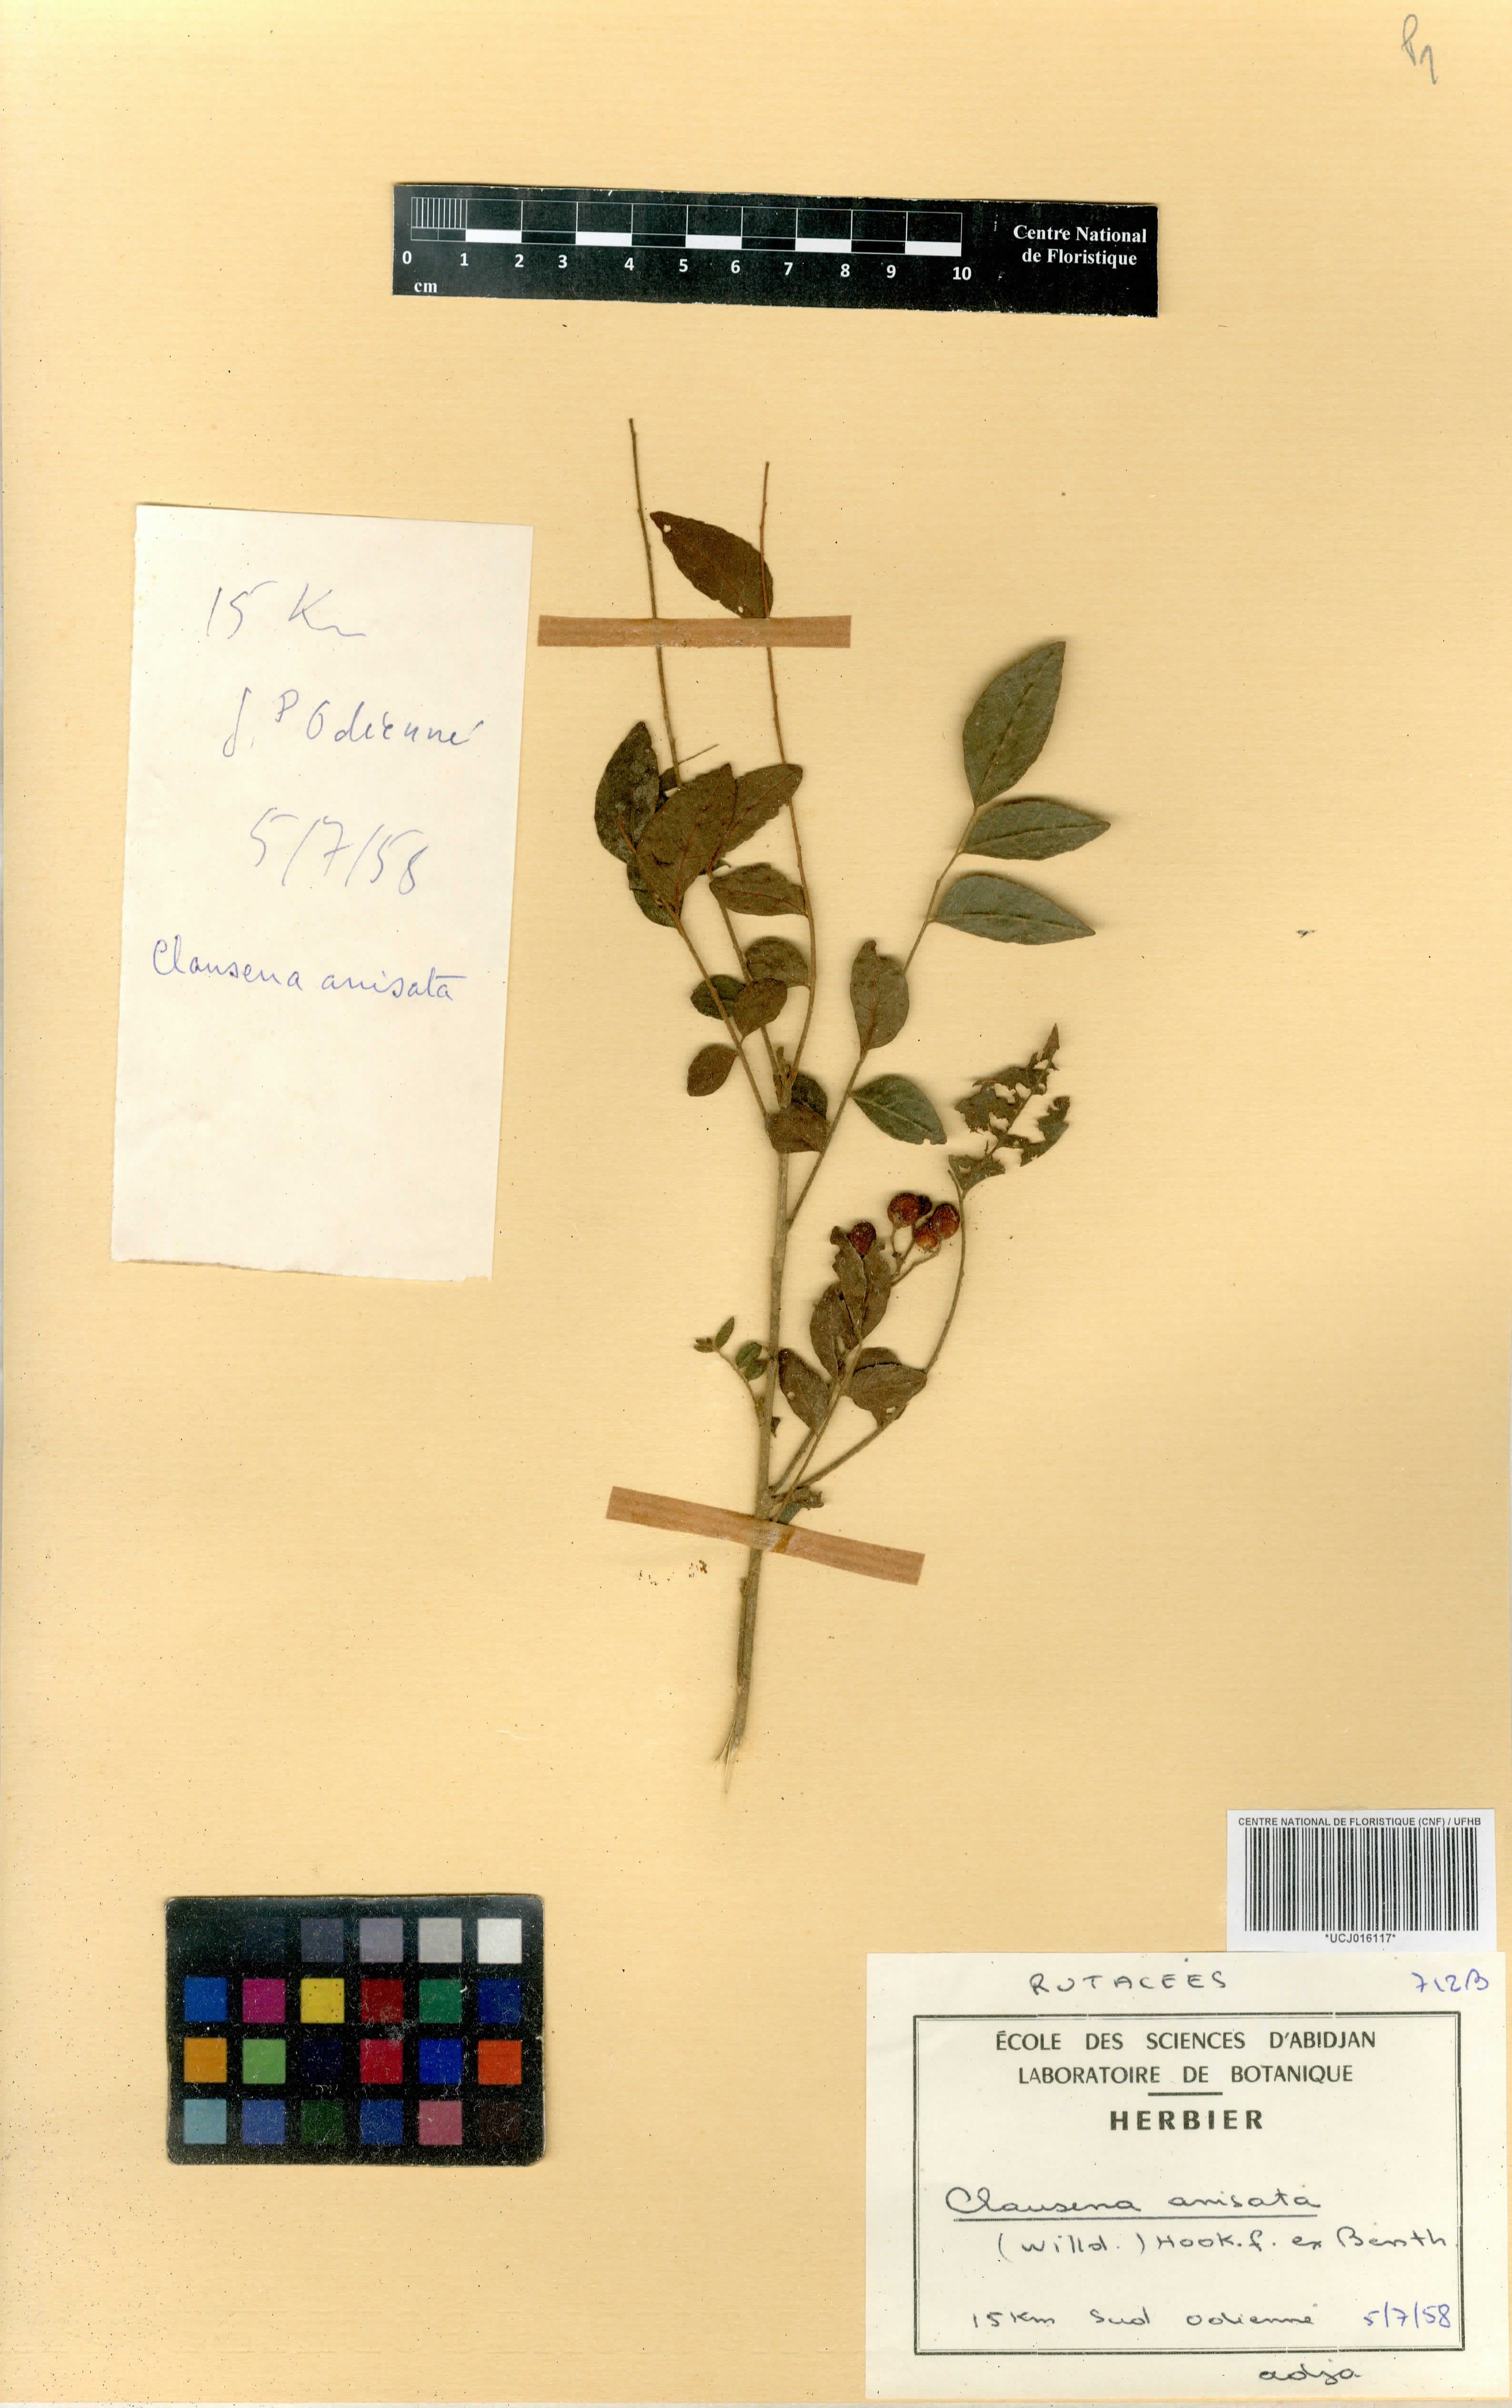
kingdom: Plantae
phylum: Tracheophyta
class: Magnoliopsida
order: Sapindales
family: Rutaceae
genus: Clausena
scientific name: Clausena anisata
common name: Horsewood
